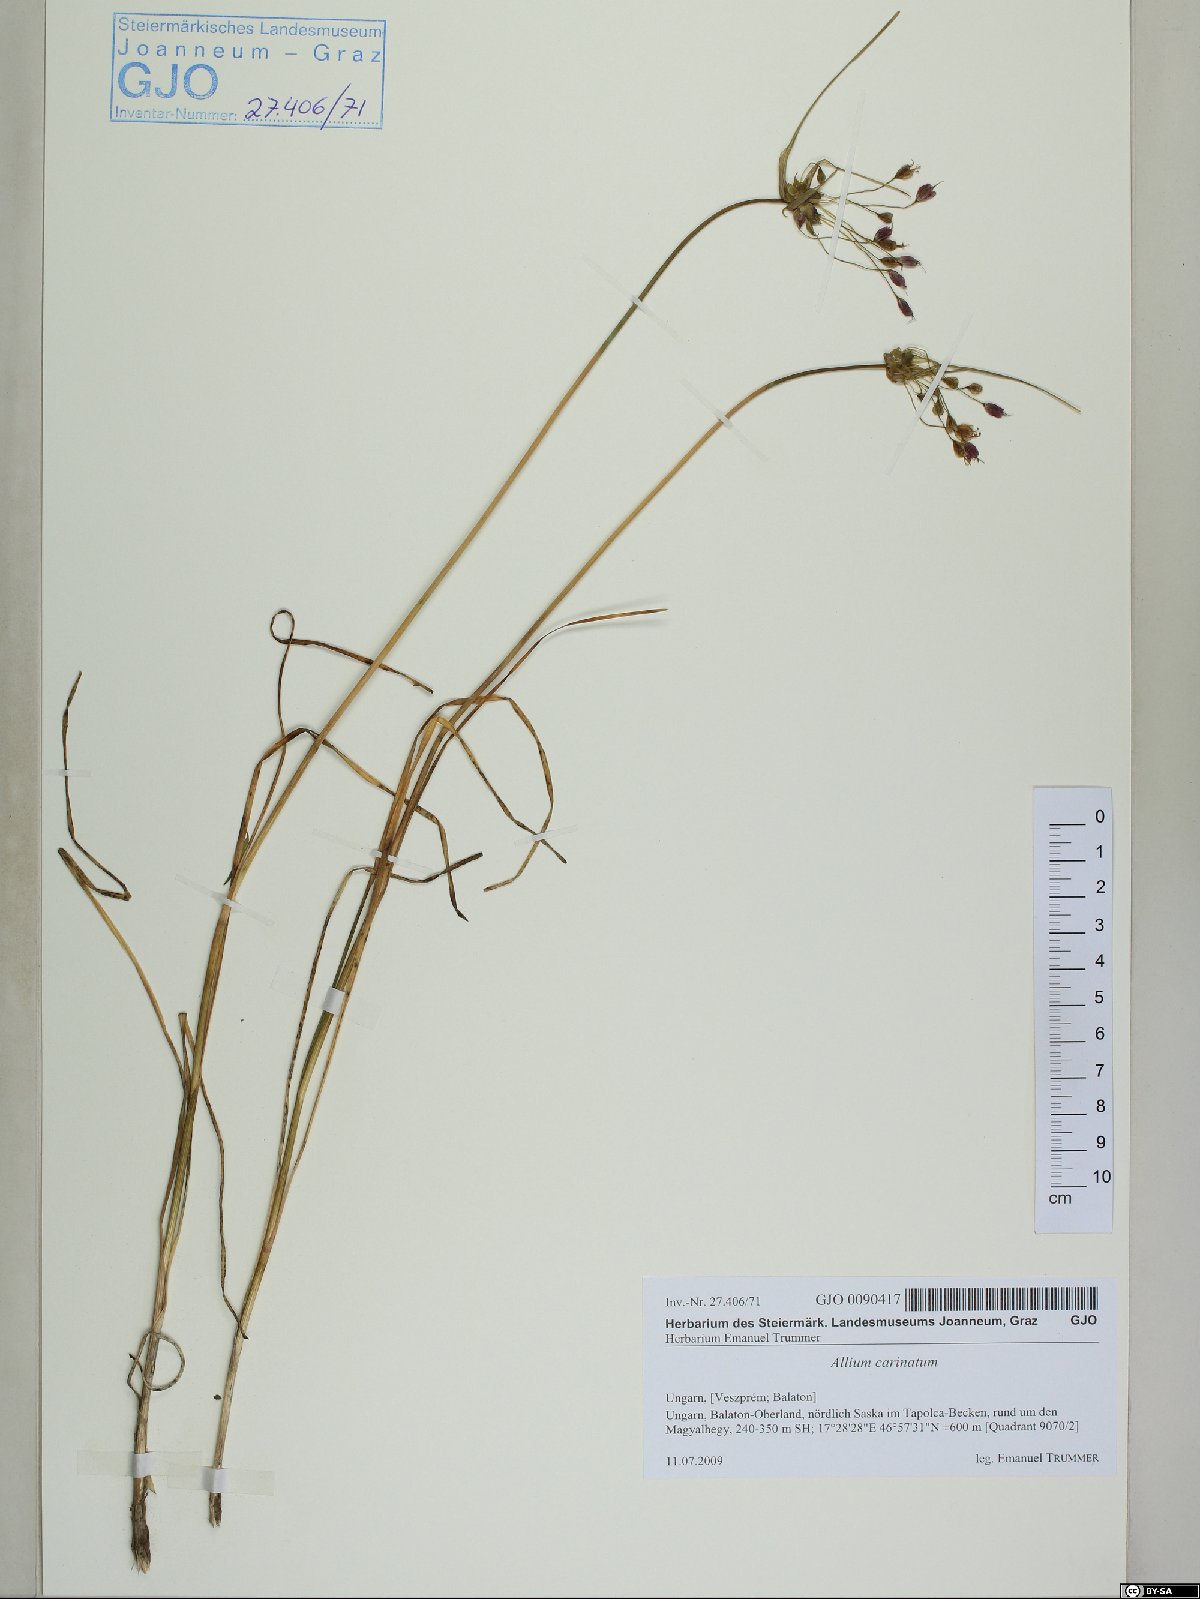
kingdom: Plantae
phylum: Tracheophyta
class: Liliopsida
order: Asparagales
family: Amaryllidaceae
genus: Allium
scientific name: Allium carinatum
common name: Keeled garlic
